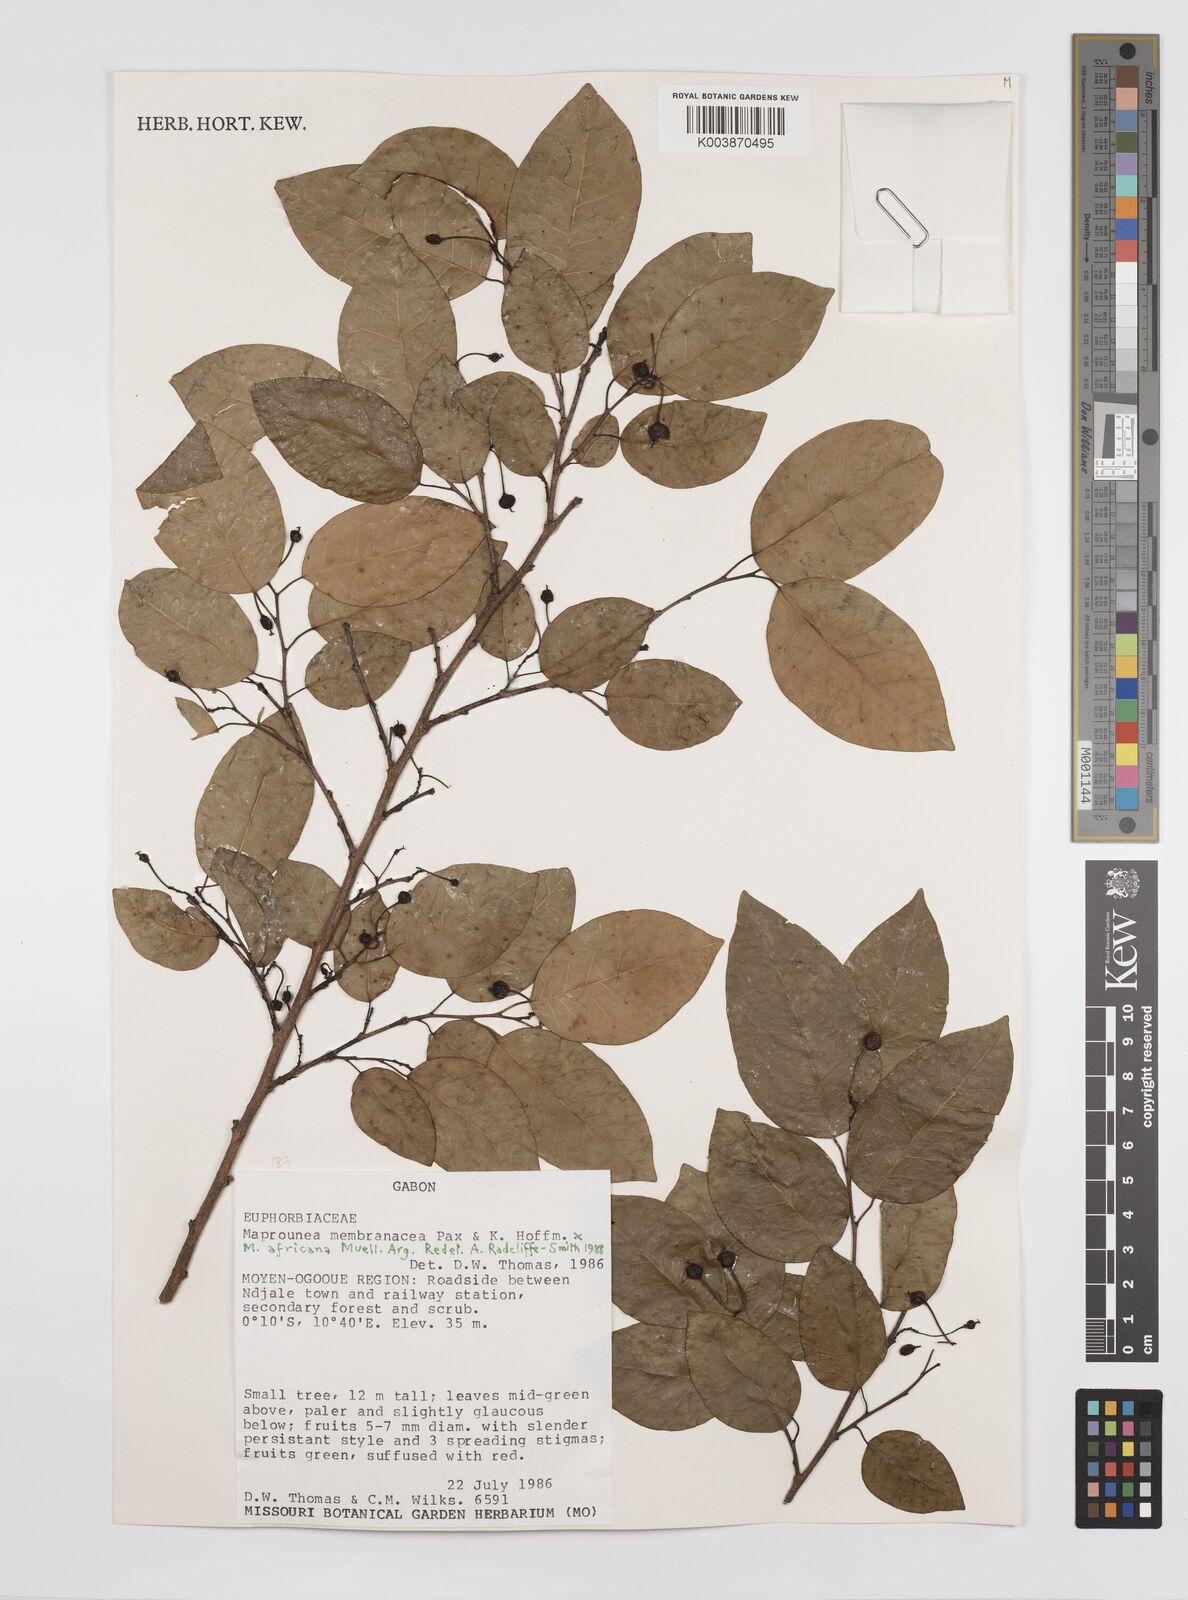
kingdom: Plantae
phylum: Tracheophyta
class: Magnoliopsida
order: Malpighiales
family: Euphorbiaceae
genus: Maprounea
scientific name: Maprounea membranacea
